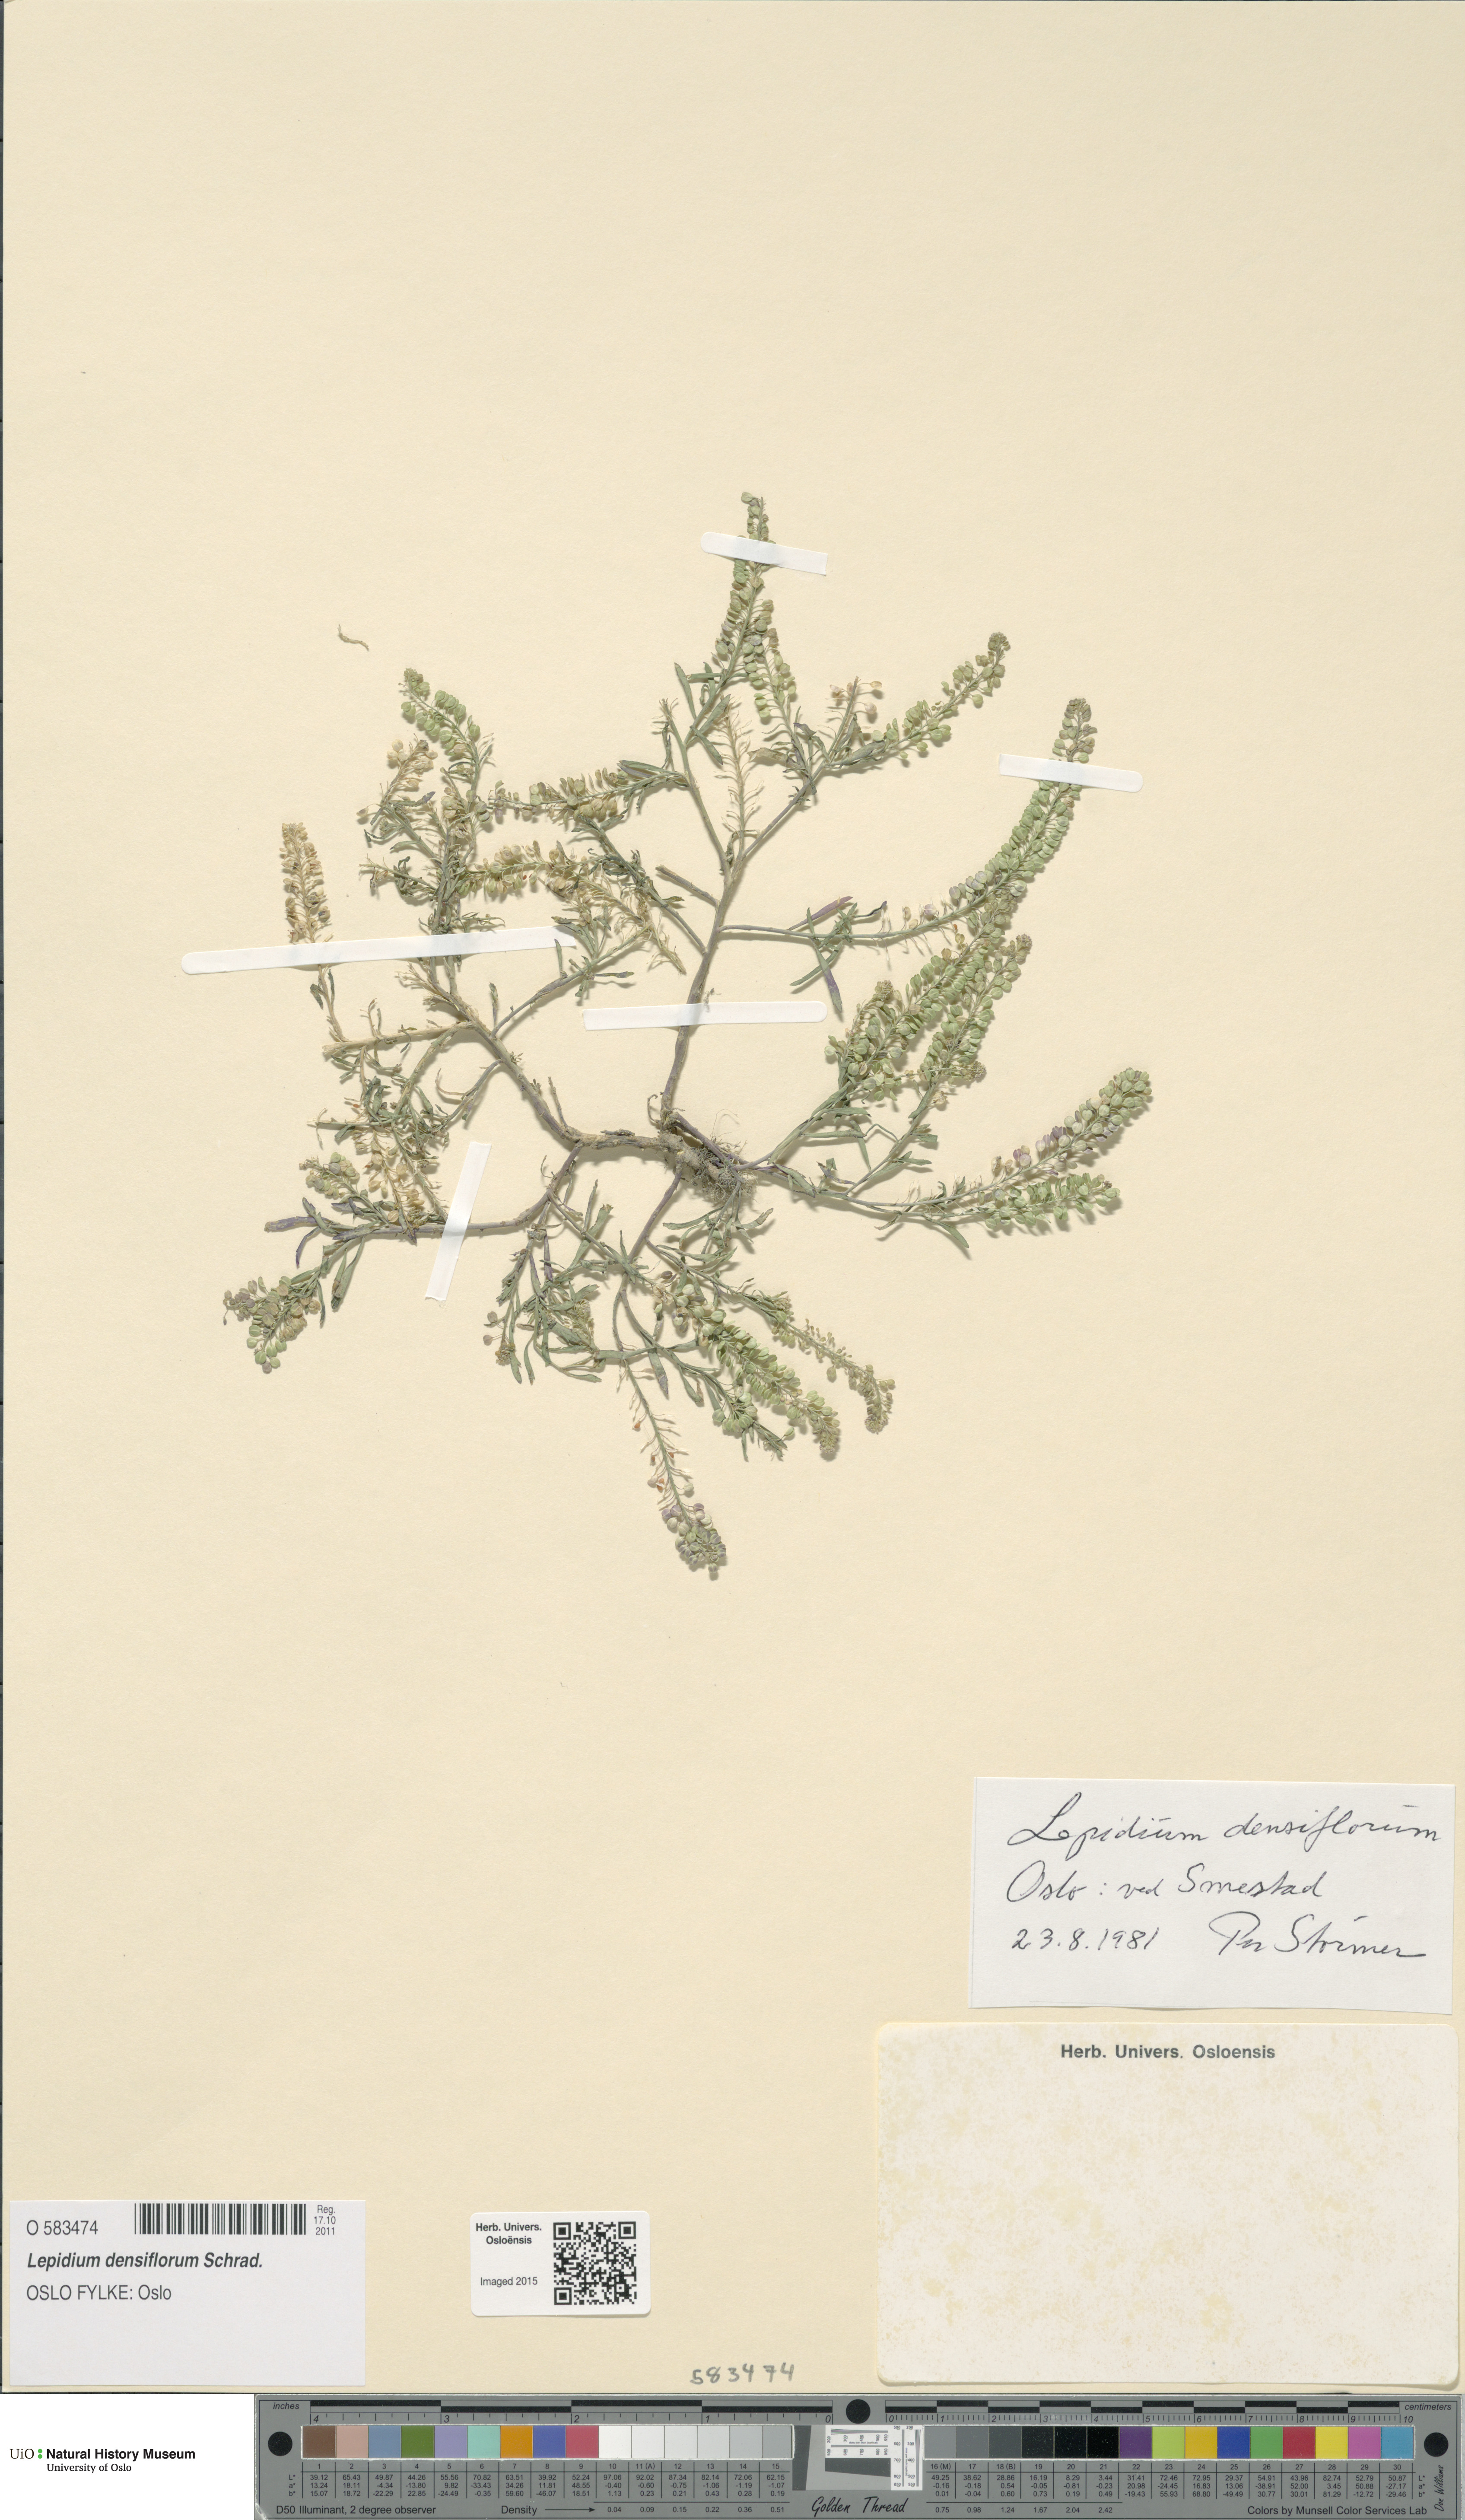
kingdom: Plantae
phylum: Tracheophyta
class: Magnoliopsida
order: Brassicales
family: Brassicaceae
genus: Lepidium
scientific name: Lepidium densiflorum
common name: Miner's pepperwort
